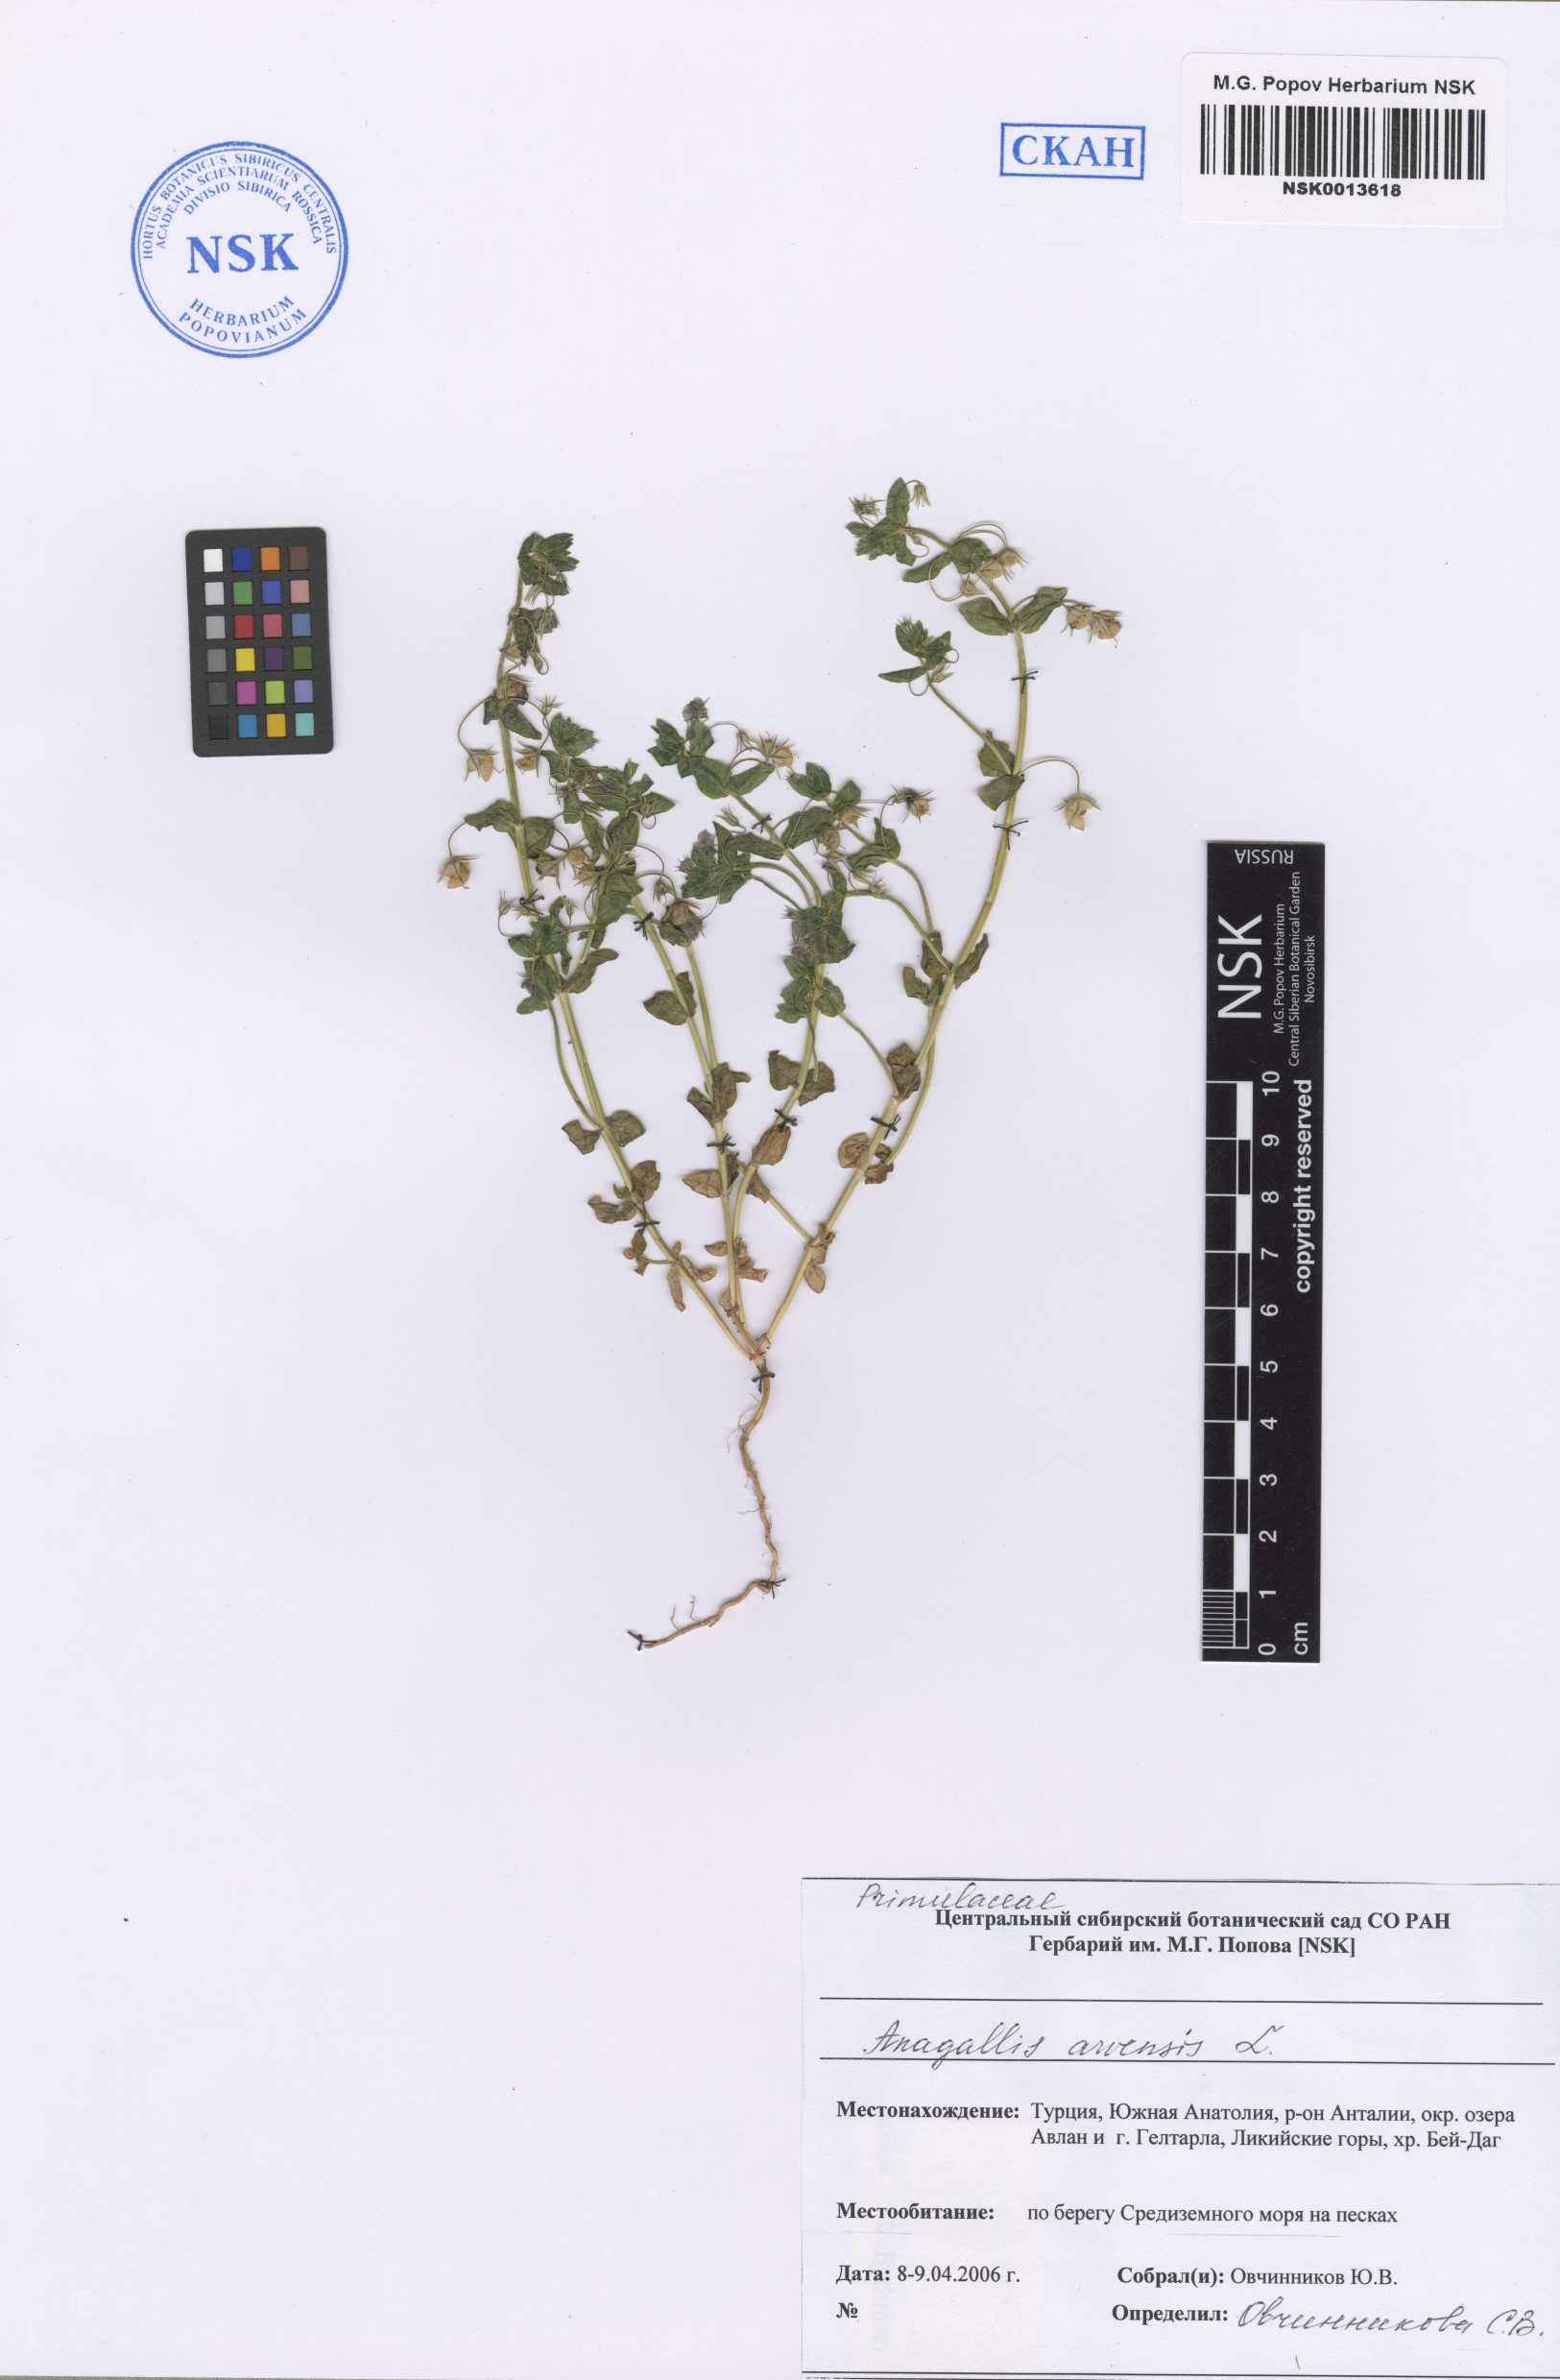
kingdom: Plantae
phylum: Tracheophyta
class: Magnoliopsida
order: Ericales
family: Primulaceae
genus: Lysimachia
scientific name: Lysimachia arvensis
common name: Scarlet pimpernel
